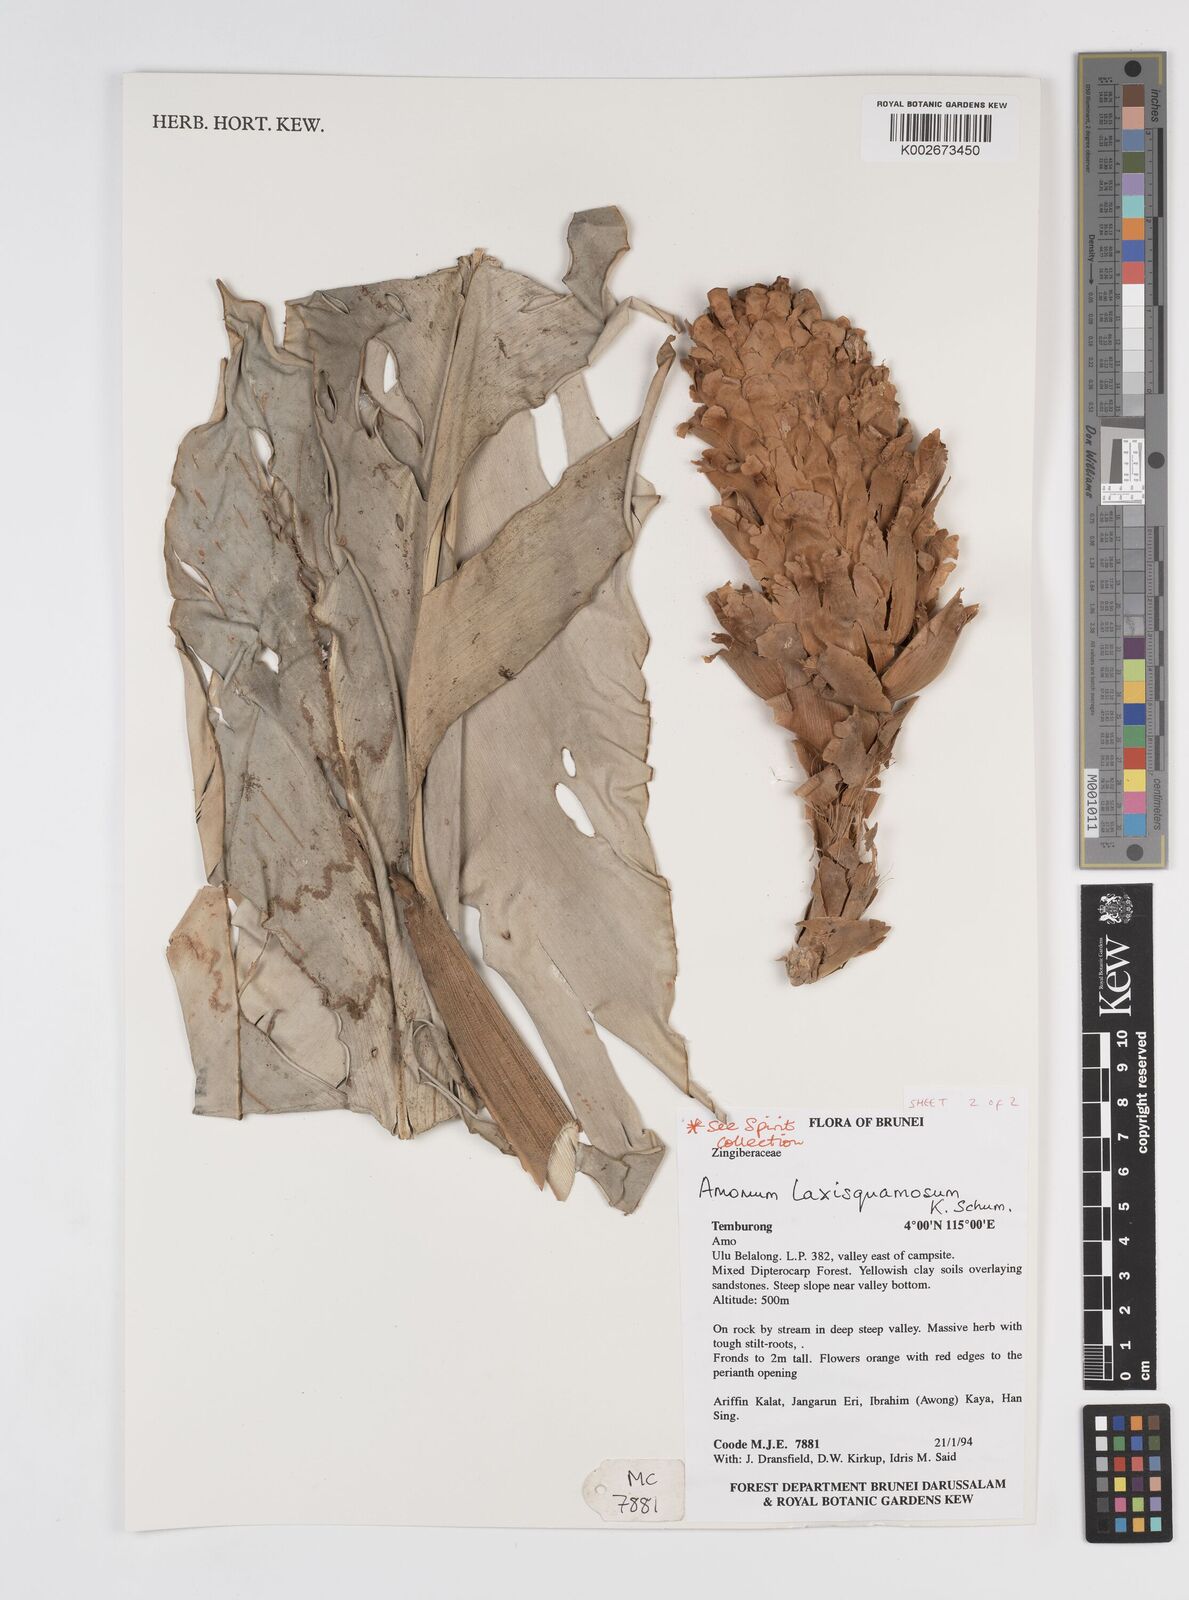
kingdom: Plantae
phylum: Tracheophyta
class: Liliopsida
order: Zingiberales
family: Zingiberaceae
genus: Sundamomum
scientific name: Sundamomum laxesquamosum
